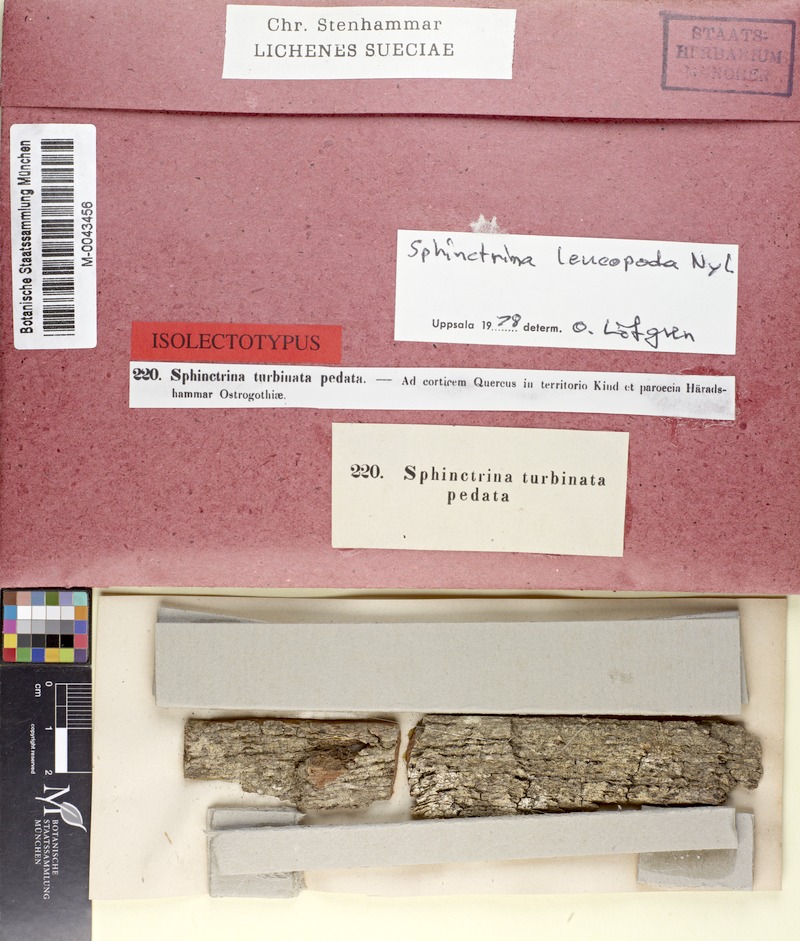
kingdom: Fungi
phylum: Ascomycota
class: Eurotiomycetes
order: Mycocaliciales
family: Sphinctrinaceae
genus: Sphinctrina
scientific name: Sphinctrina leucopoda
